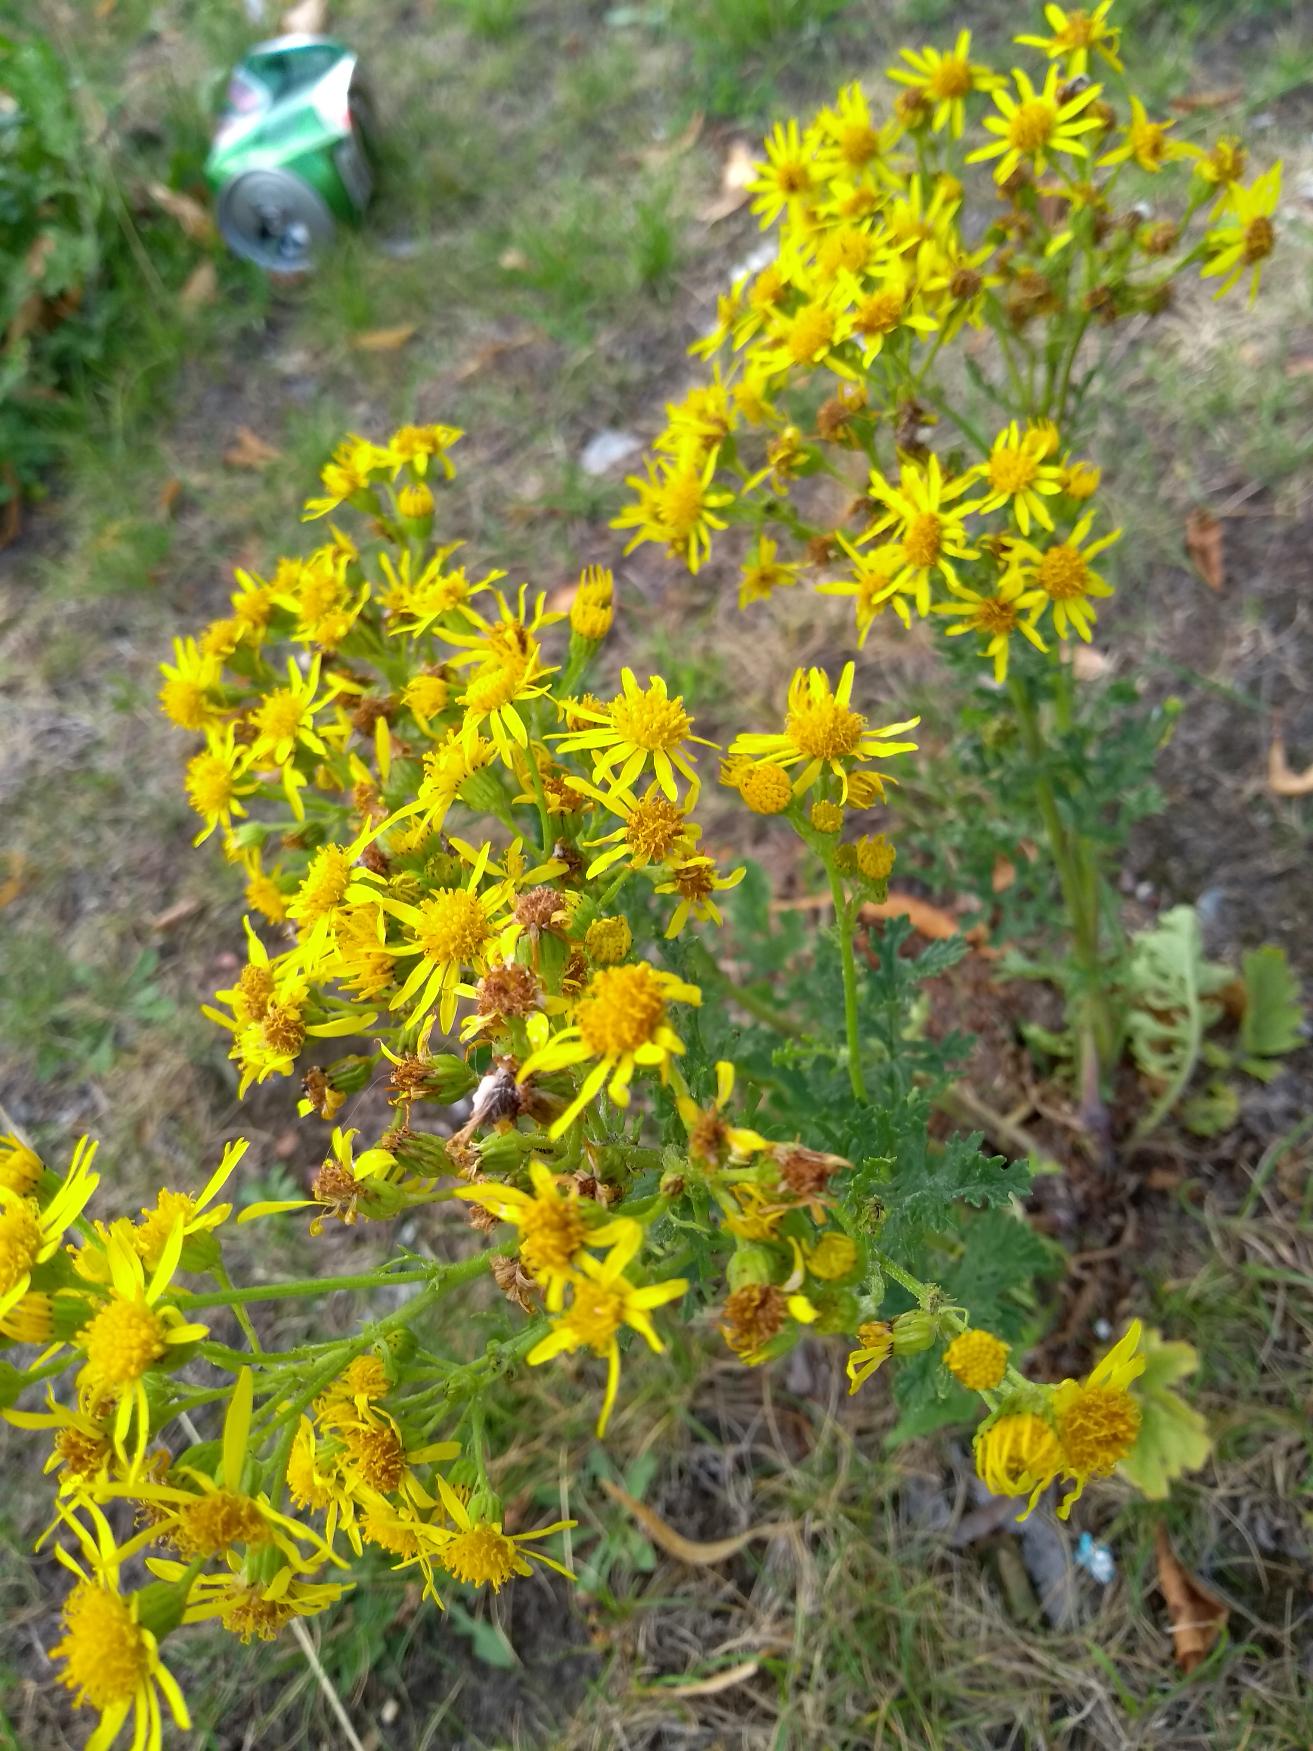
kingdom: Plantae
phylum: Tracheophyta
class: Magnoliopsida
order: Asterales
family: Asteraceae
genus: Jacobaea
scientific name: Jacobaea vulgaris
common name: Eng-brandbæger
